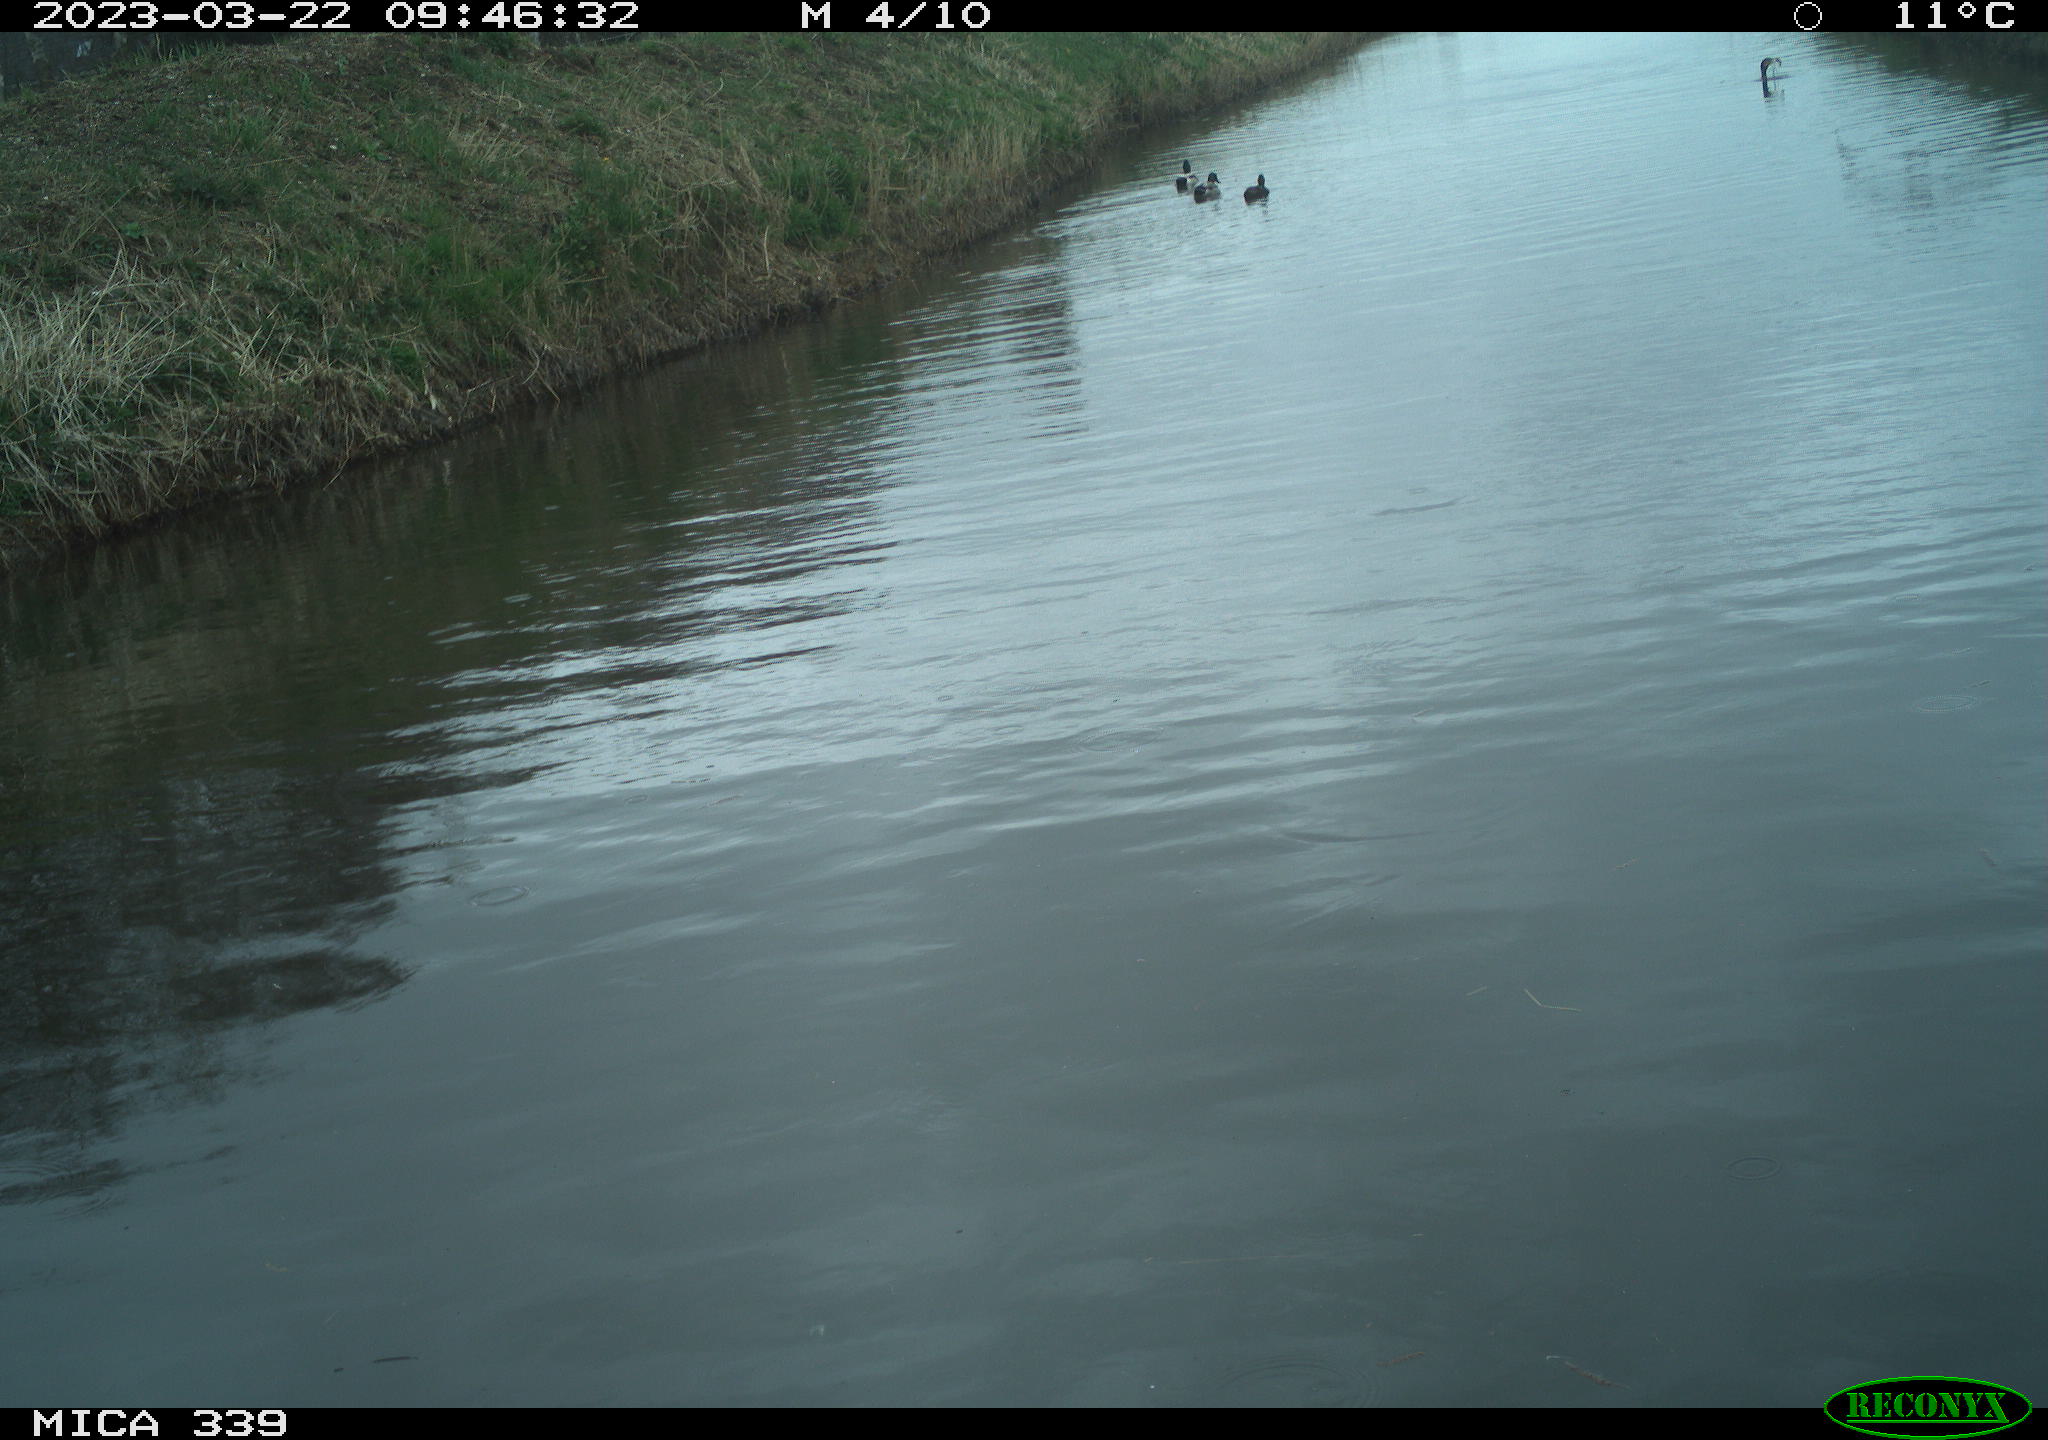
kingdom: Animalia
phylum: Chordata
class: Aves
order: Pelecaniformes
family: Ardeidae
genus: Ardea
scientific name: Ardea
